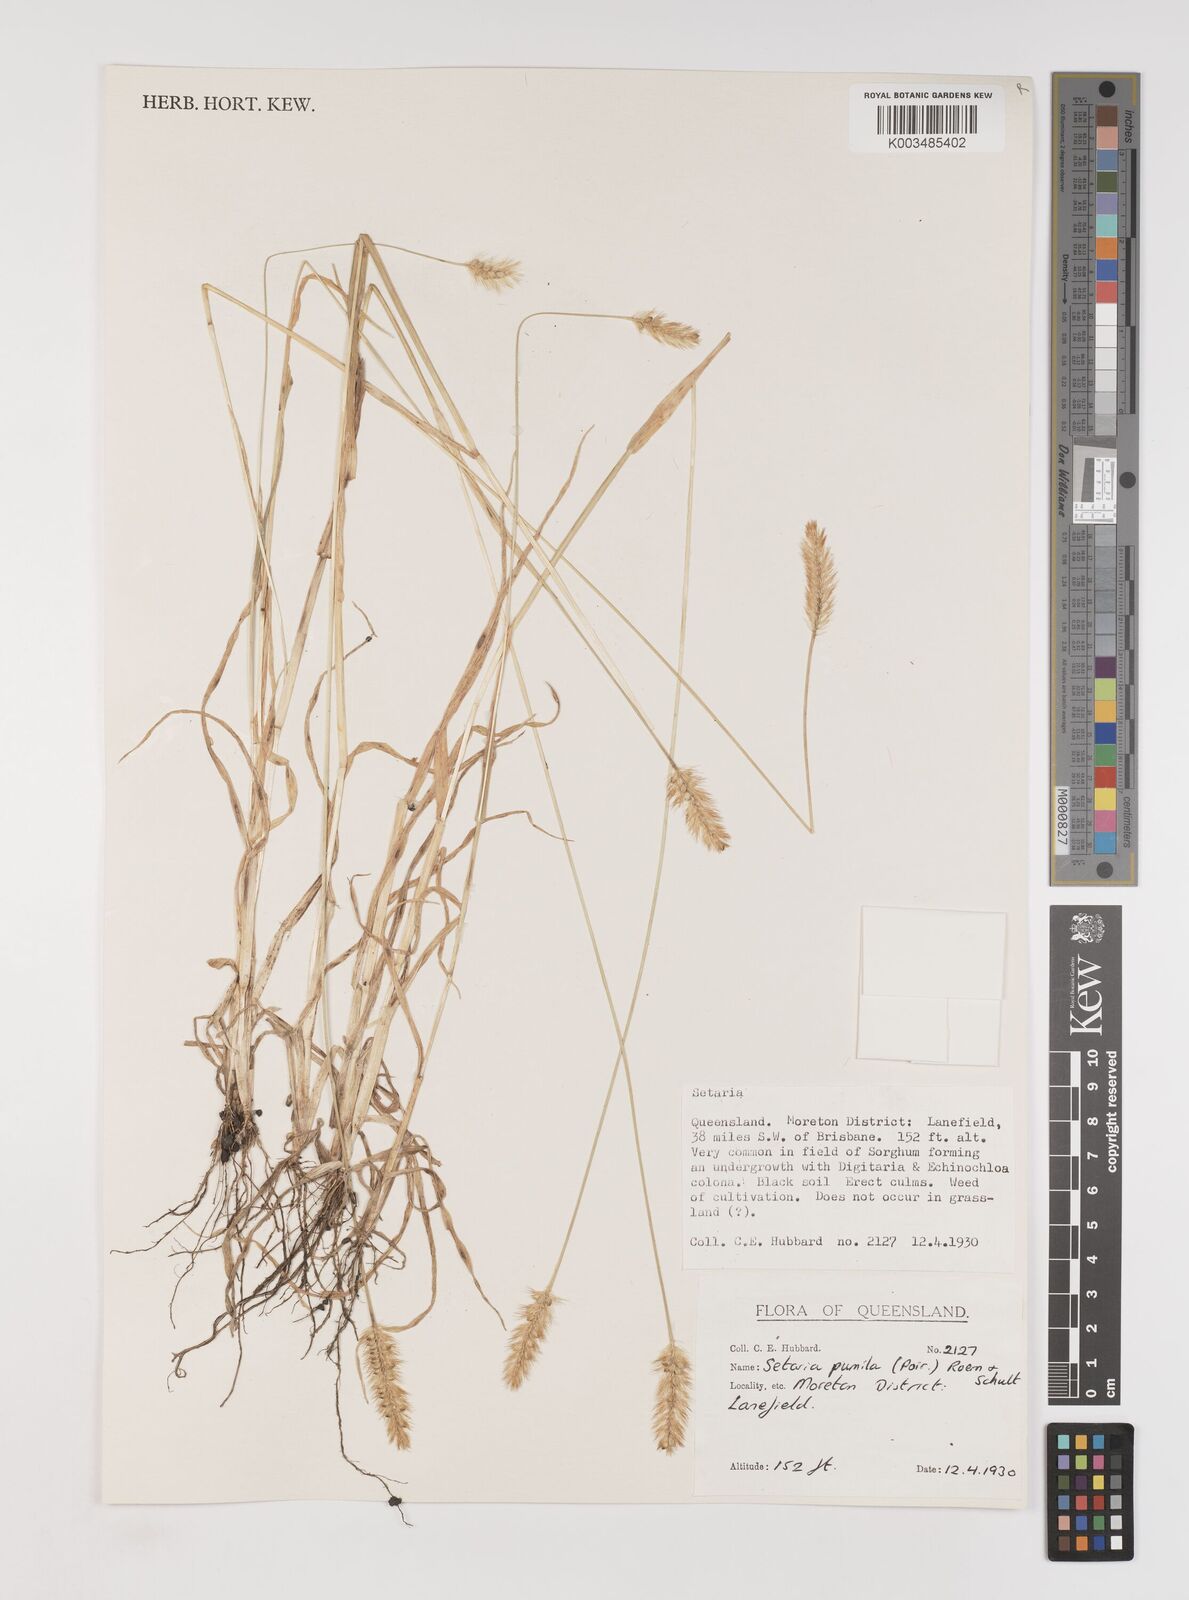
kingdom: Plantae
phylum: Tracheophyta
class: Liliopsida
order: Poales
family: Poaceae
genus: Setaria
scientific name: Setaria pumila
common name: Yellow bristle-grass
